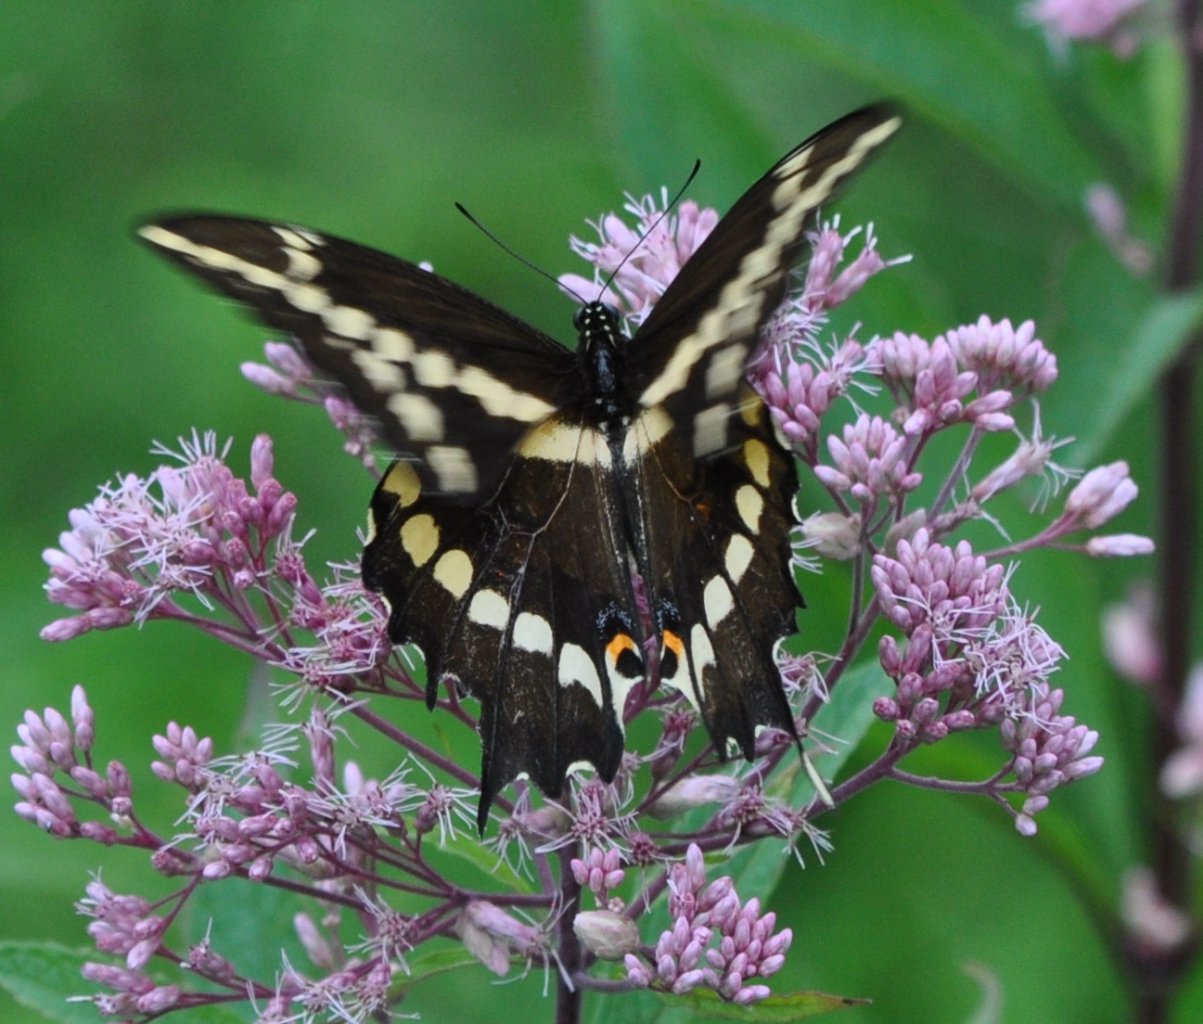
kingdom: Animalia
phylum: Arthropoda
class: Insecta
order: Lepidoptera
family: Papilionidae
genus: Papilio
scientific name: Papilio cresphontes
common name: Eastern Giant Swallowtail
